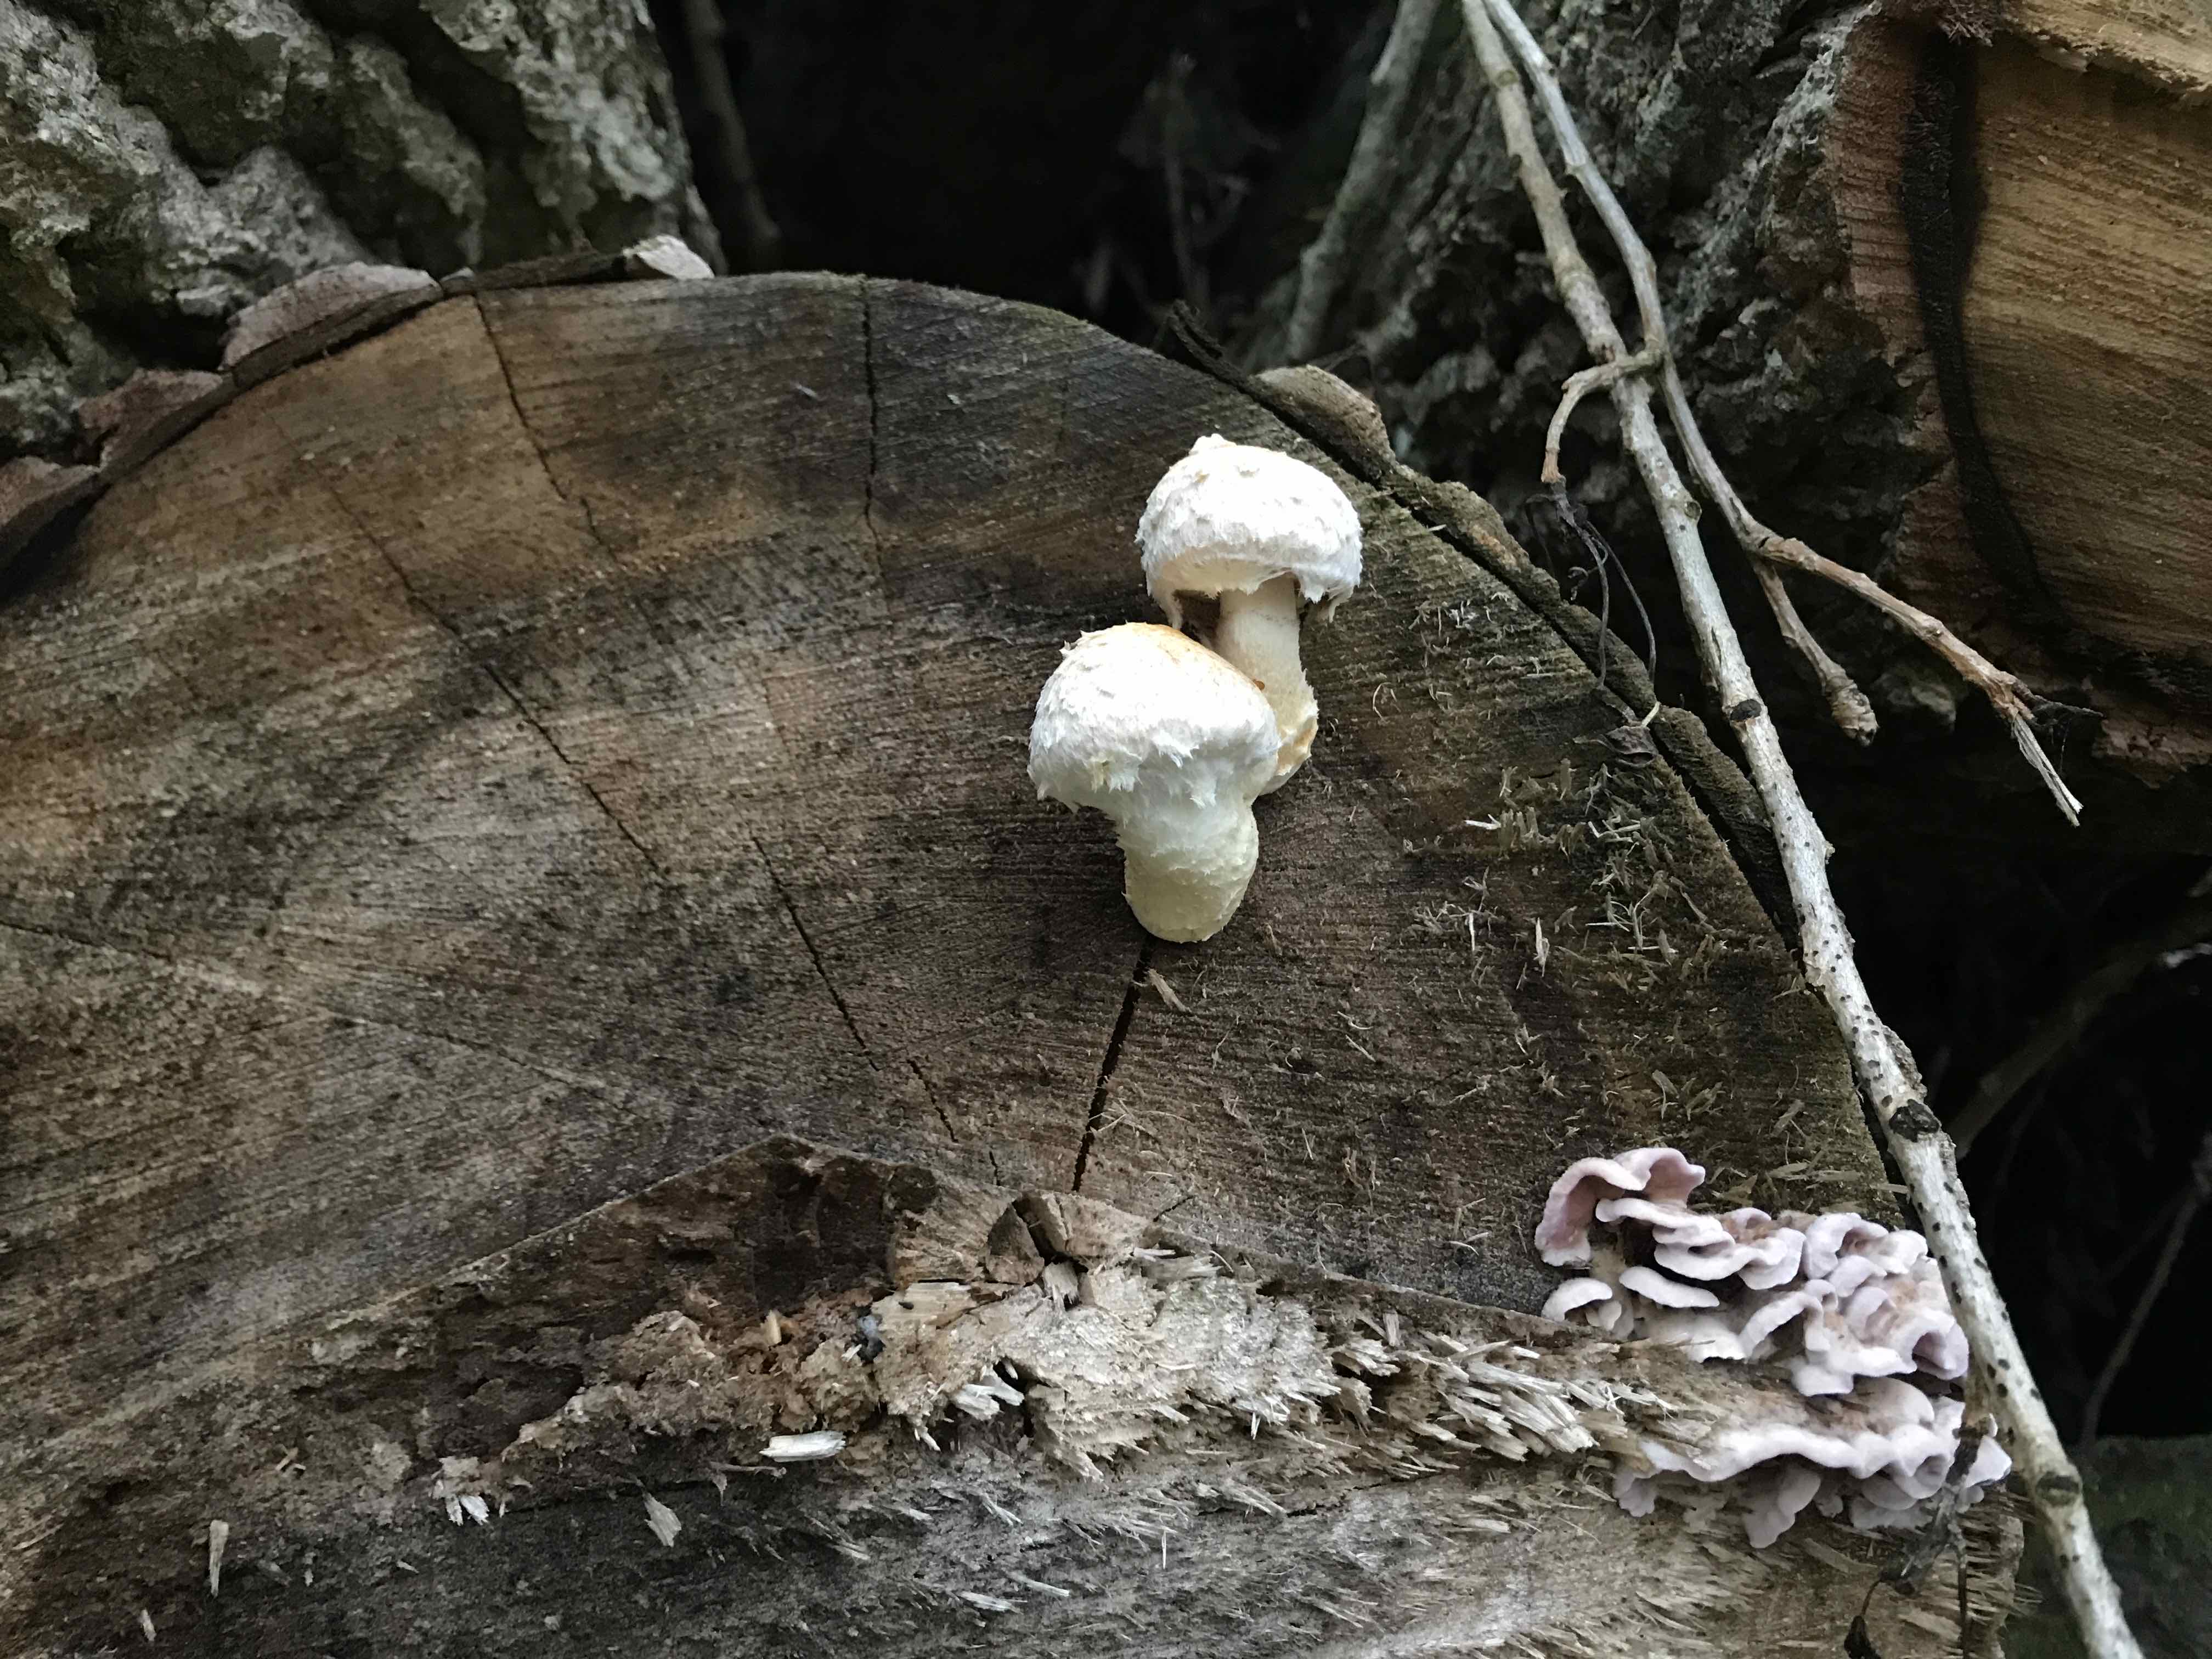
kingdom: Fungi
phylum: Basidiomycota
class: Agaricomycetes
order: Agaricales
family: Strophariaceae
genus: Pholiota
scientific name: Pholiota populnea
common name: poppel-kæmpeskælhat
